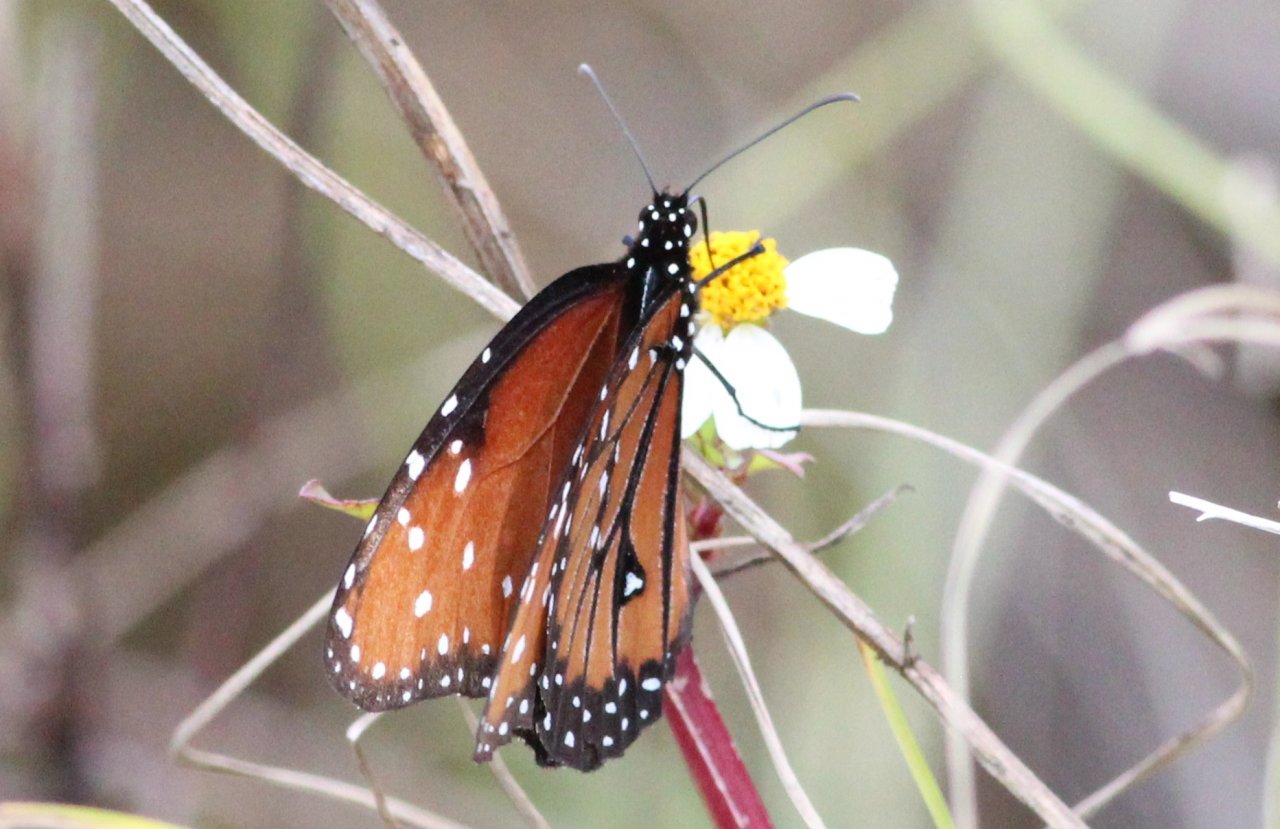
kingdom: Animalia
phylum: Arthropoda
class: Insecta
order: Lepidoptera
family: Nymphalidae
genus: Danaus
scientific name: Danaus gilippus
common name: Queen
